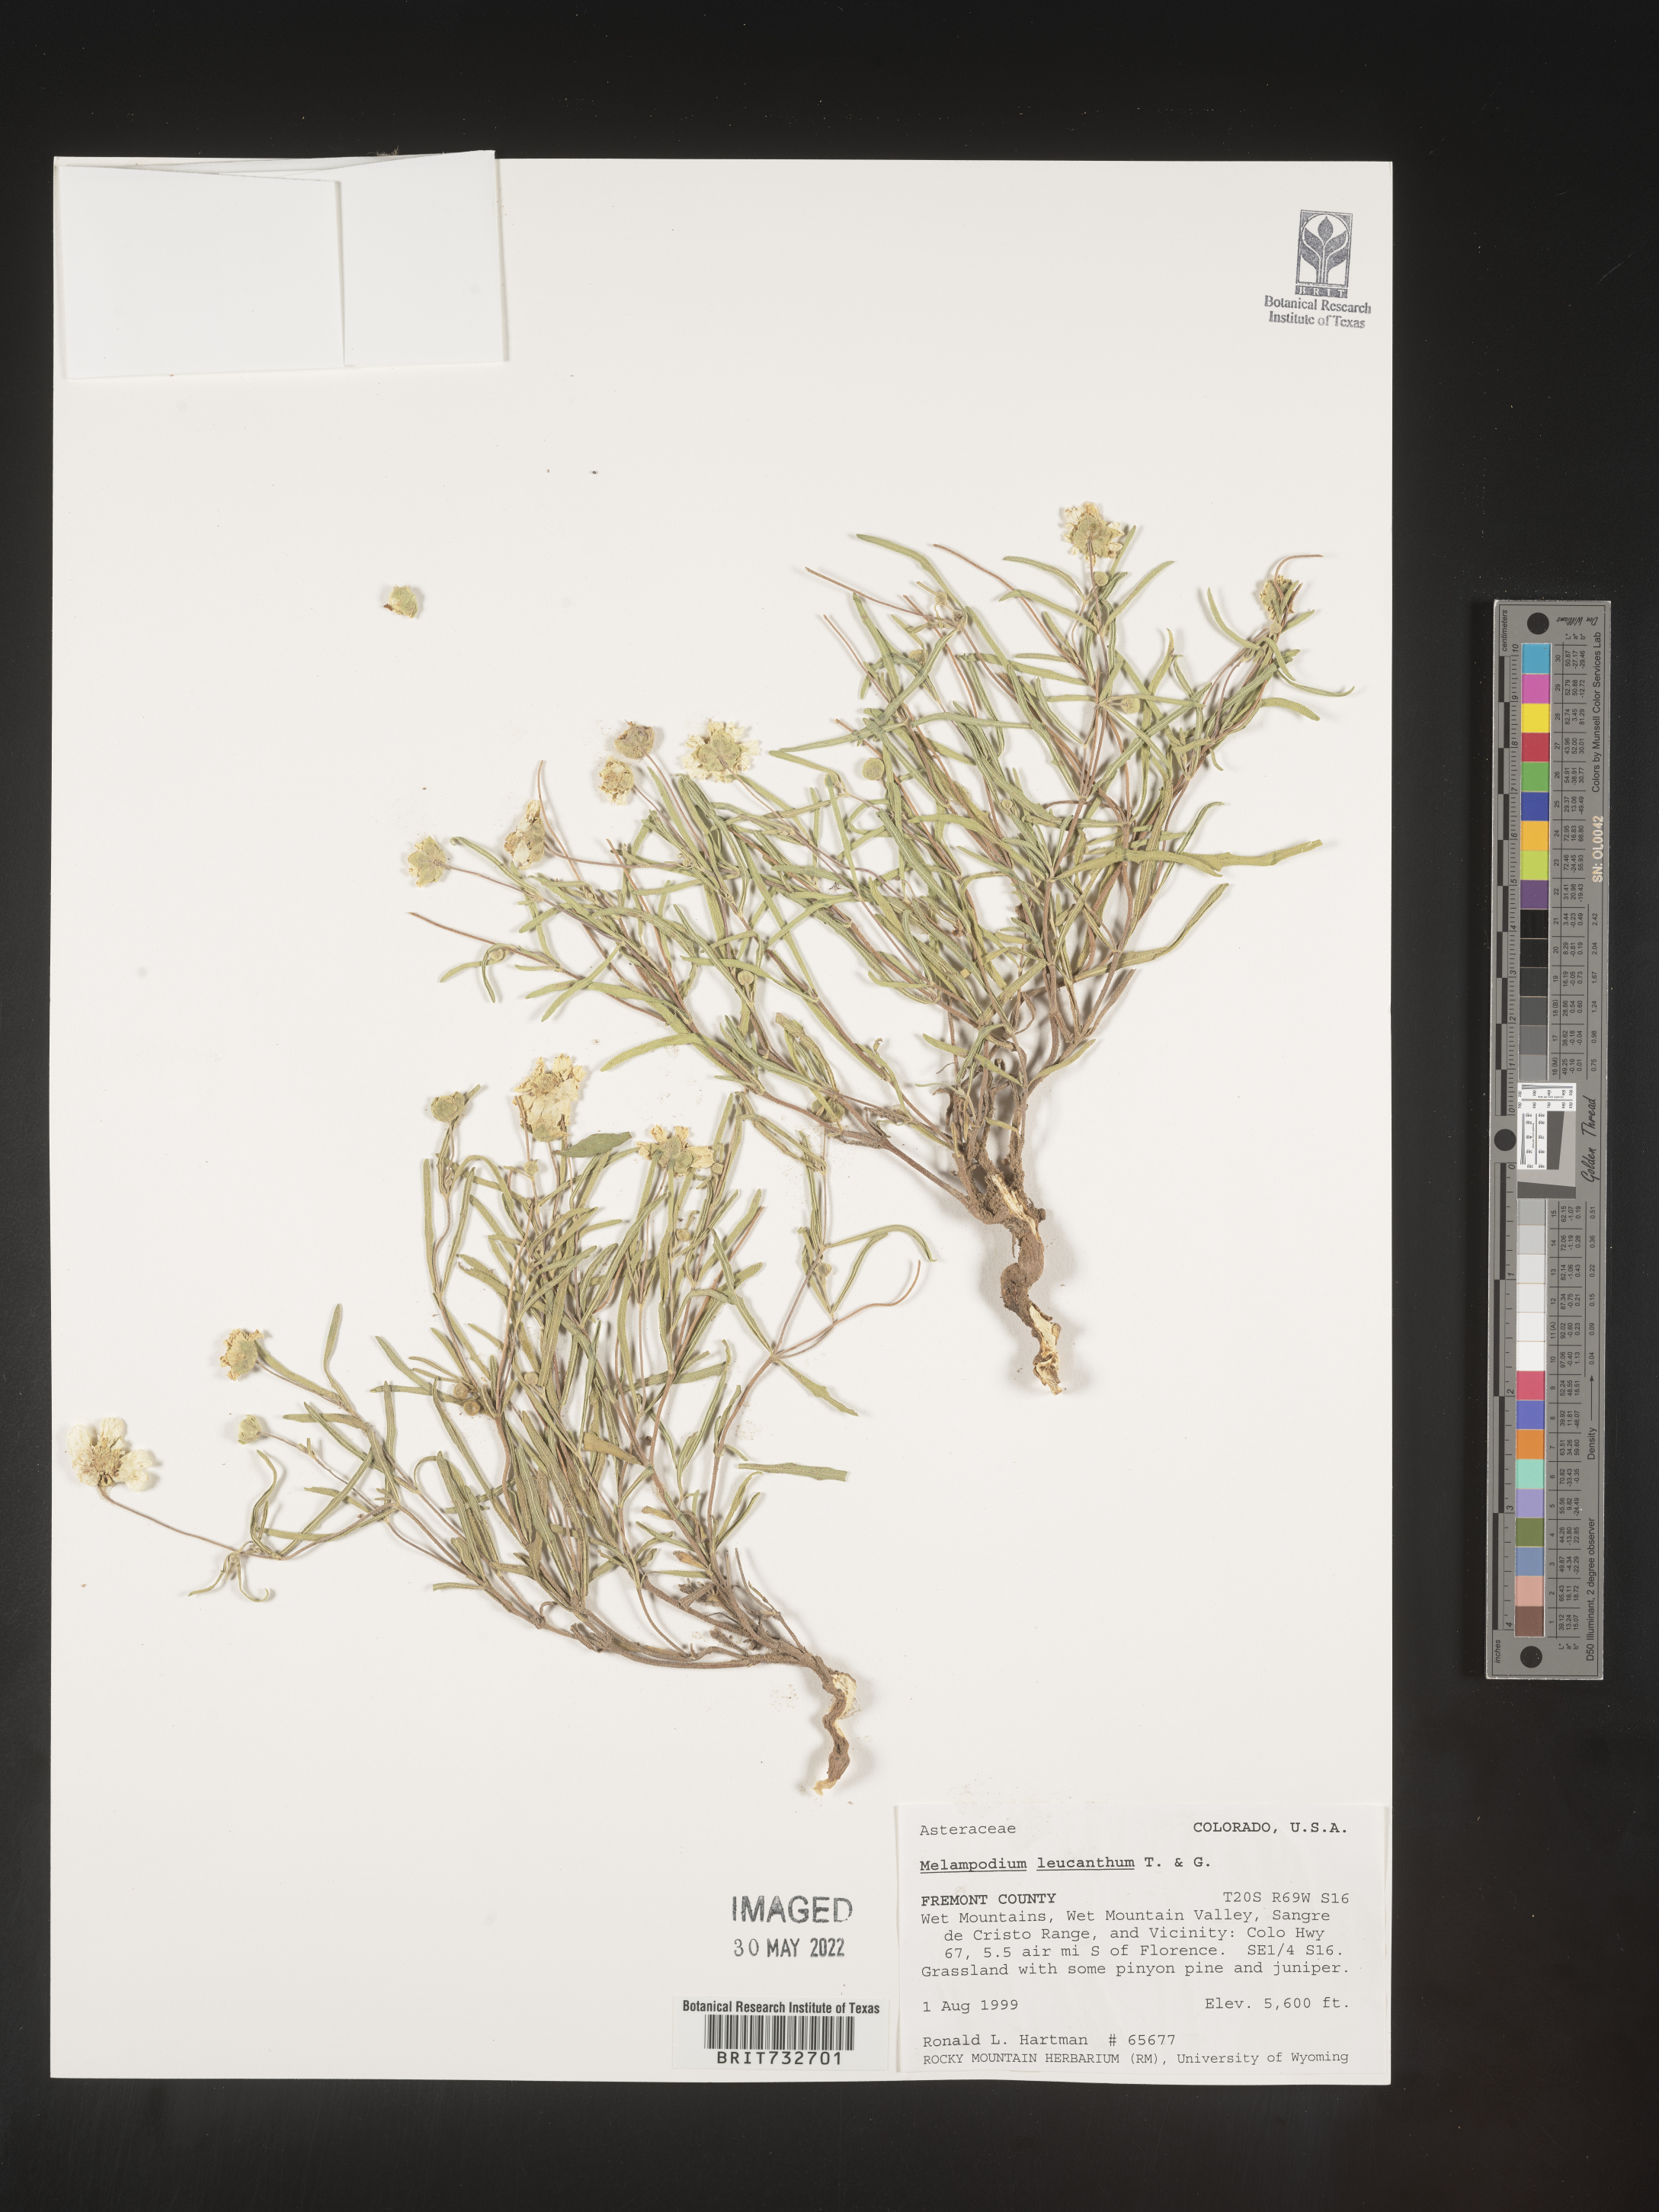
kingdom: Plantae
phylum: Tracheophyta
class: Magnoliopsida
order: Asterales
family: Asteraceae
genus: Melampodium
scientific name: Melampodium leucanthum
